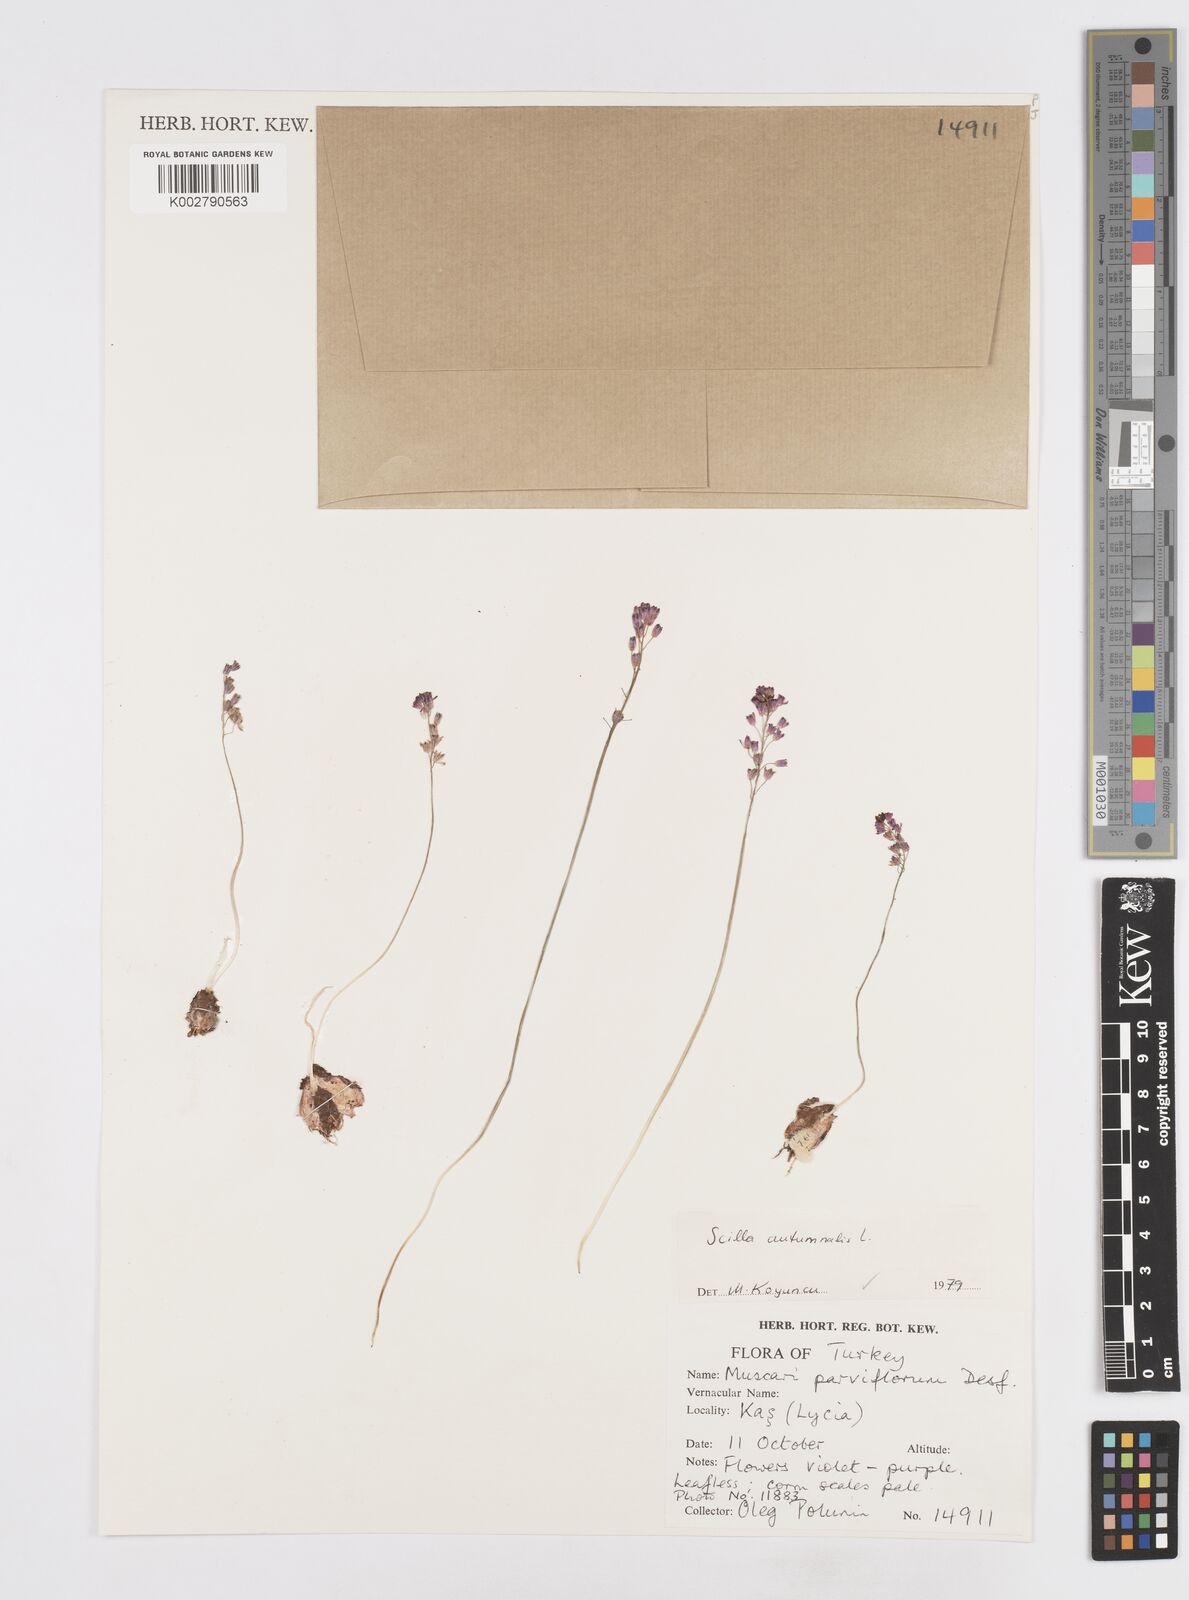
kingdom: Plantae
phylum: Tracheophyta
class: Liliopsida
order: Asparagales
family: Asparagaceae
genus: Prospero
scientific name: Prospero autumnale
